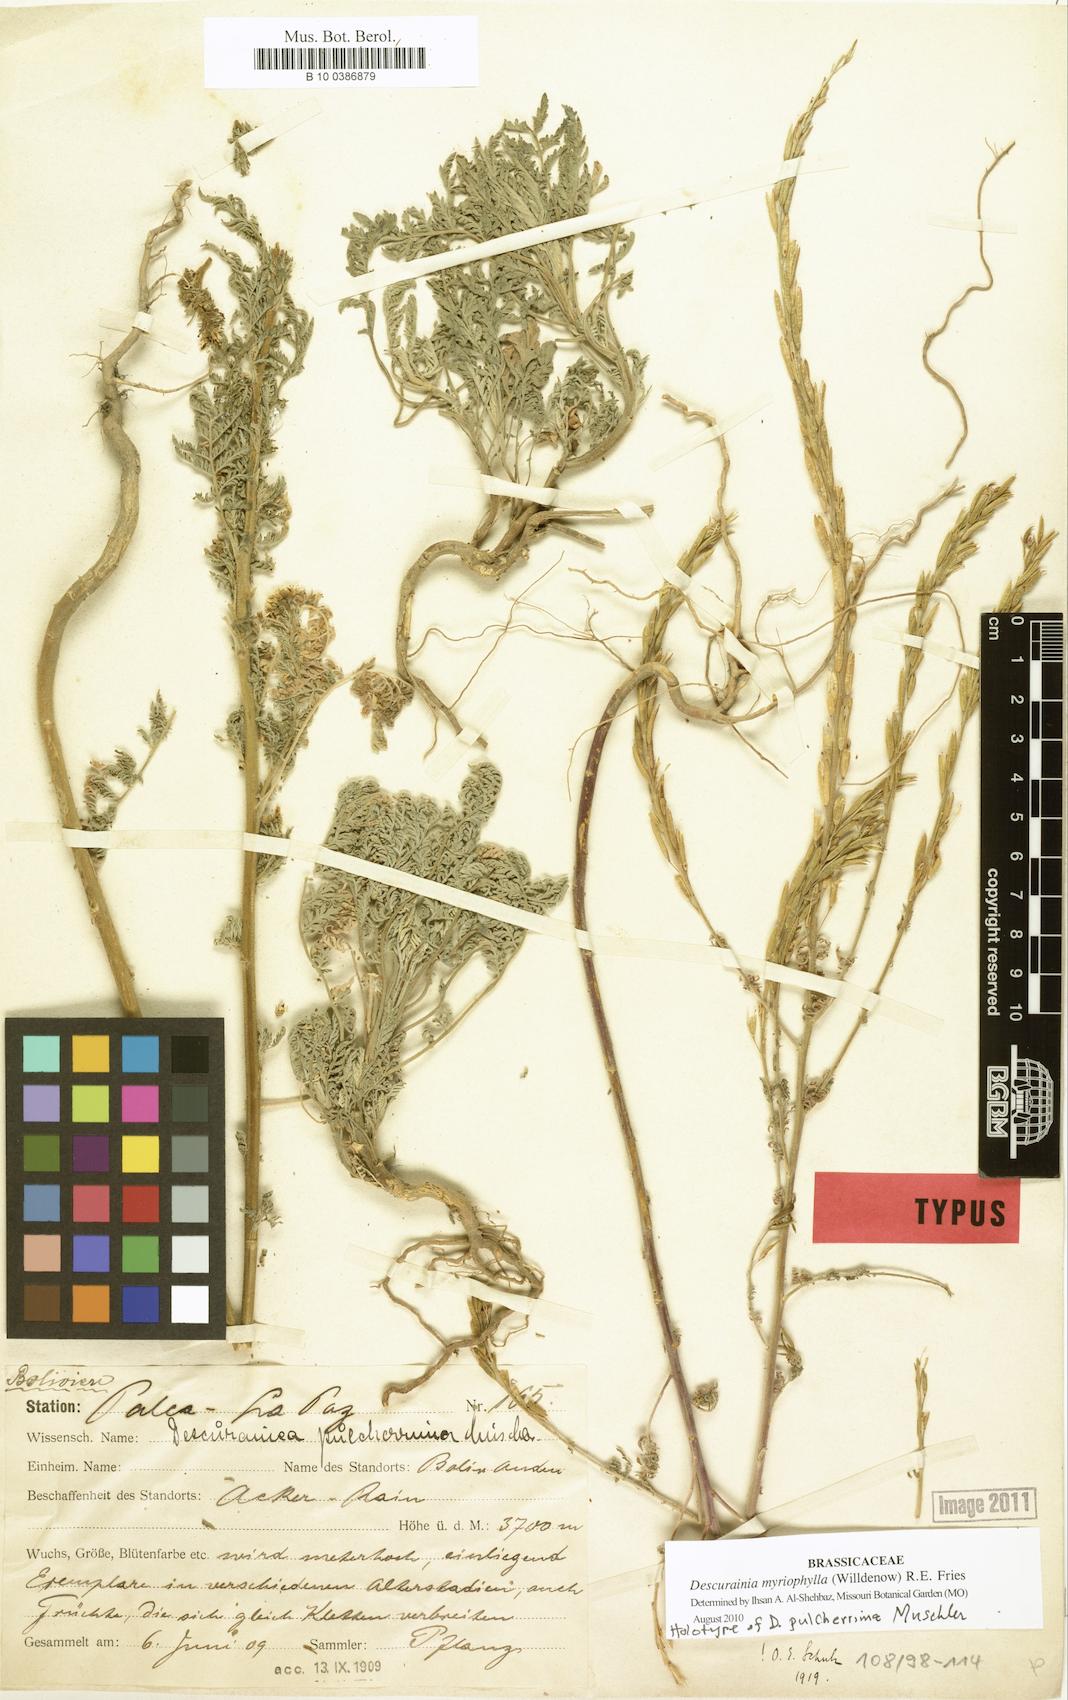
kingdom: Plantae
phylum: Tracheophyta
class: Magnoliopsida
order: Brassicales
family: Brassicaceae
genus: Descurainia
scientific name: Descurainia myriophylla
